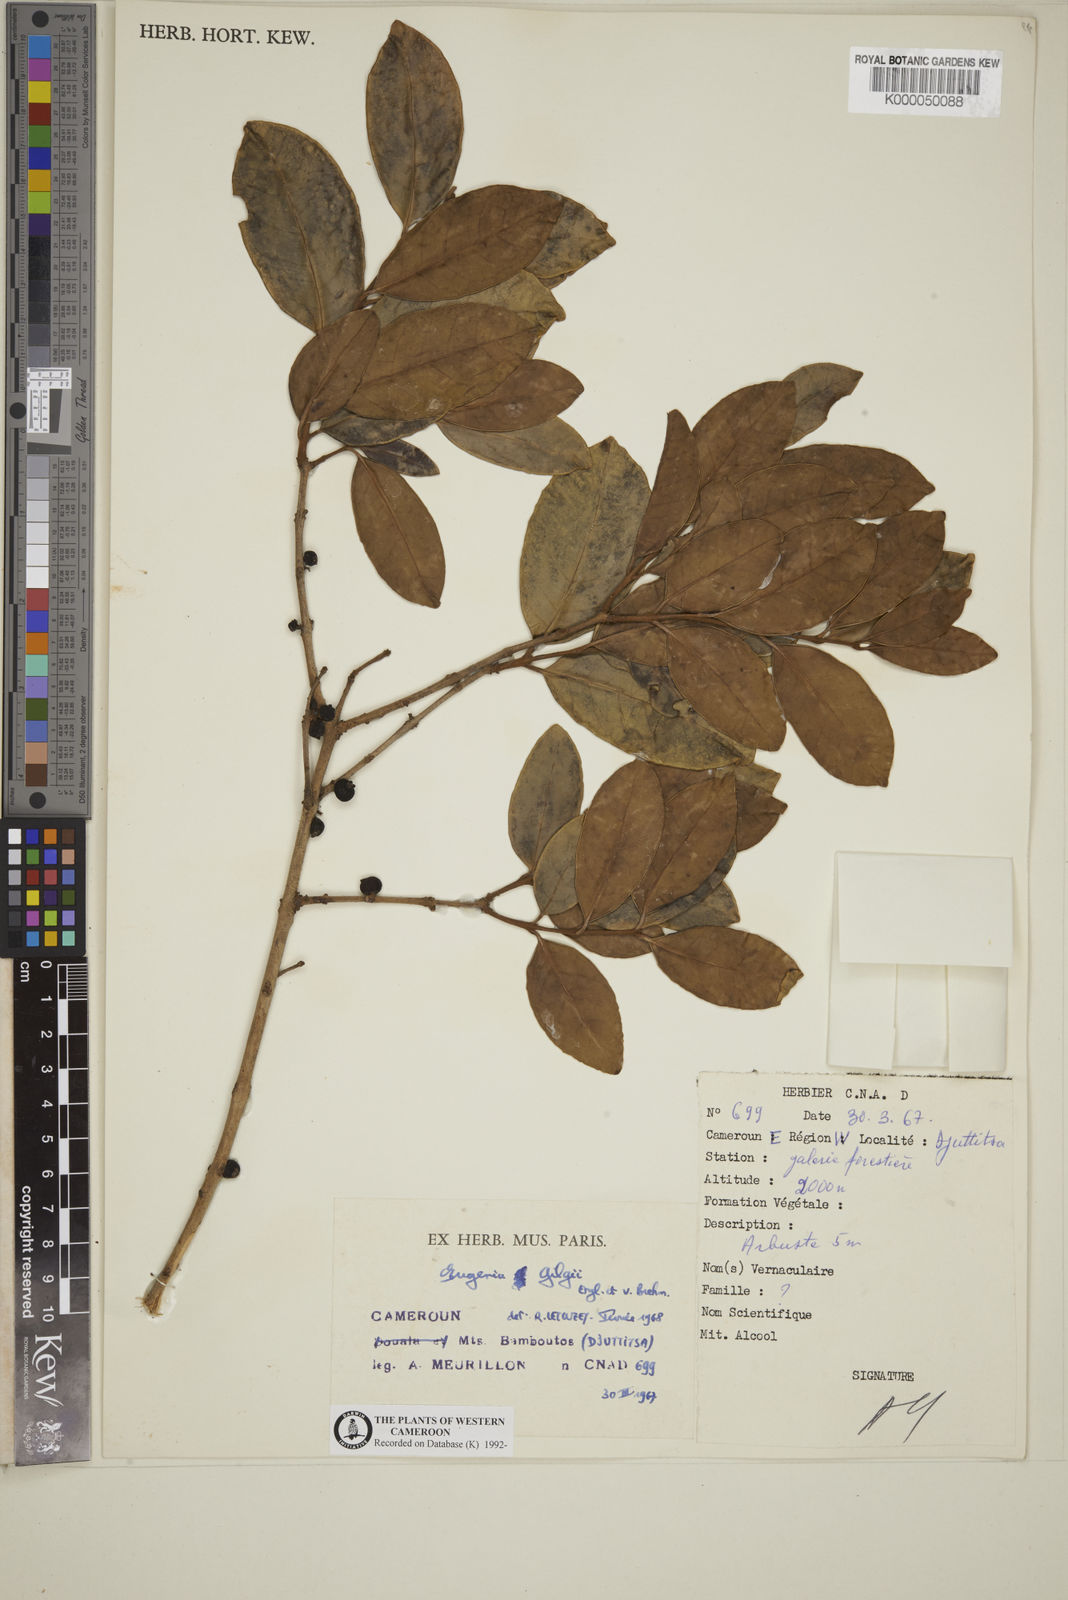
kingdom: Plantae
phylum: Tracheophyta
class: Magnoliopsida
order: Myrtales
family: Myrtaceae
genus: Eugenia
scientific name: Eugenia gilgii
